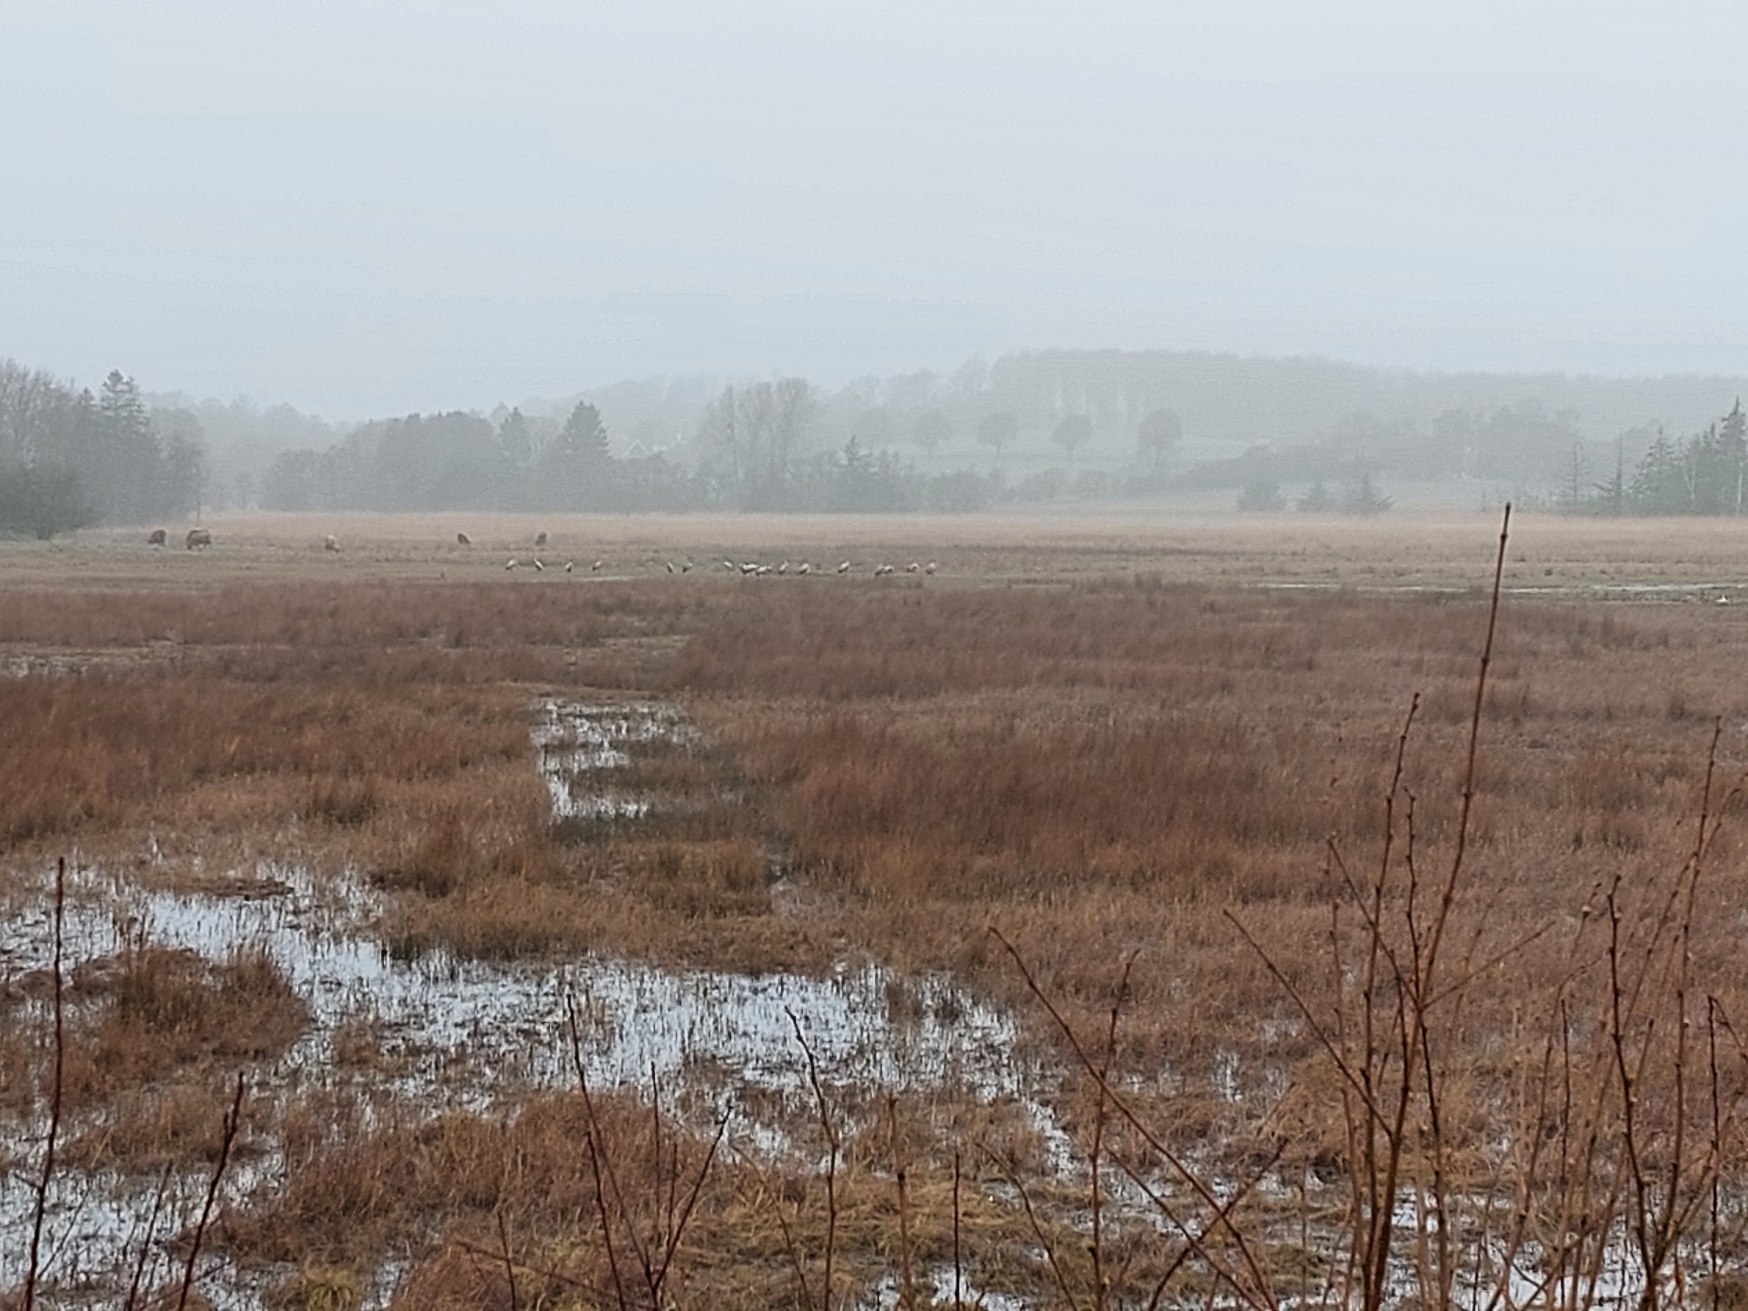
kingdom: Animalia
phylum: Chordata
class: Aves
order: Gruiformes
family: Gruidae
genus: Grus
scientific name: Grus grus
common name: Trane
